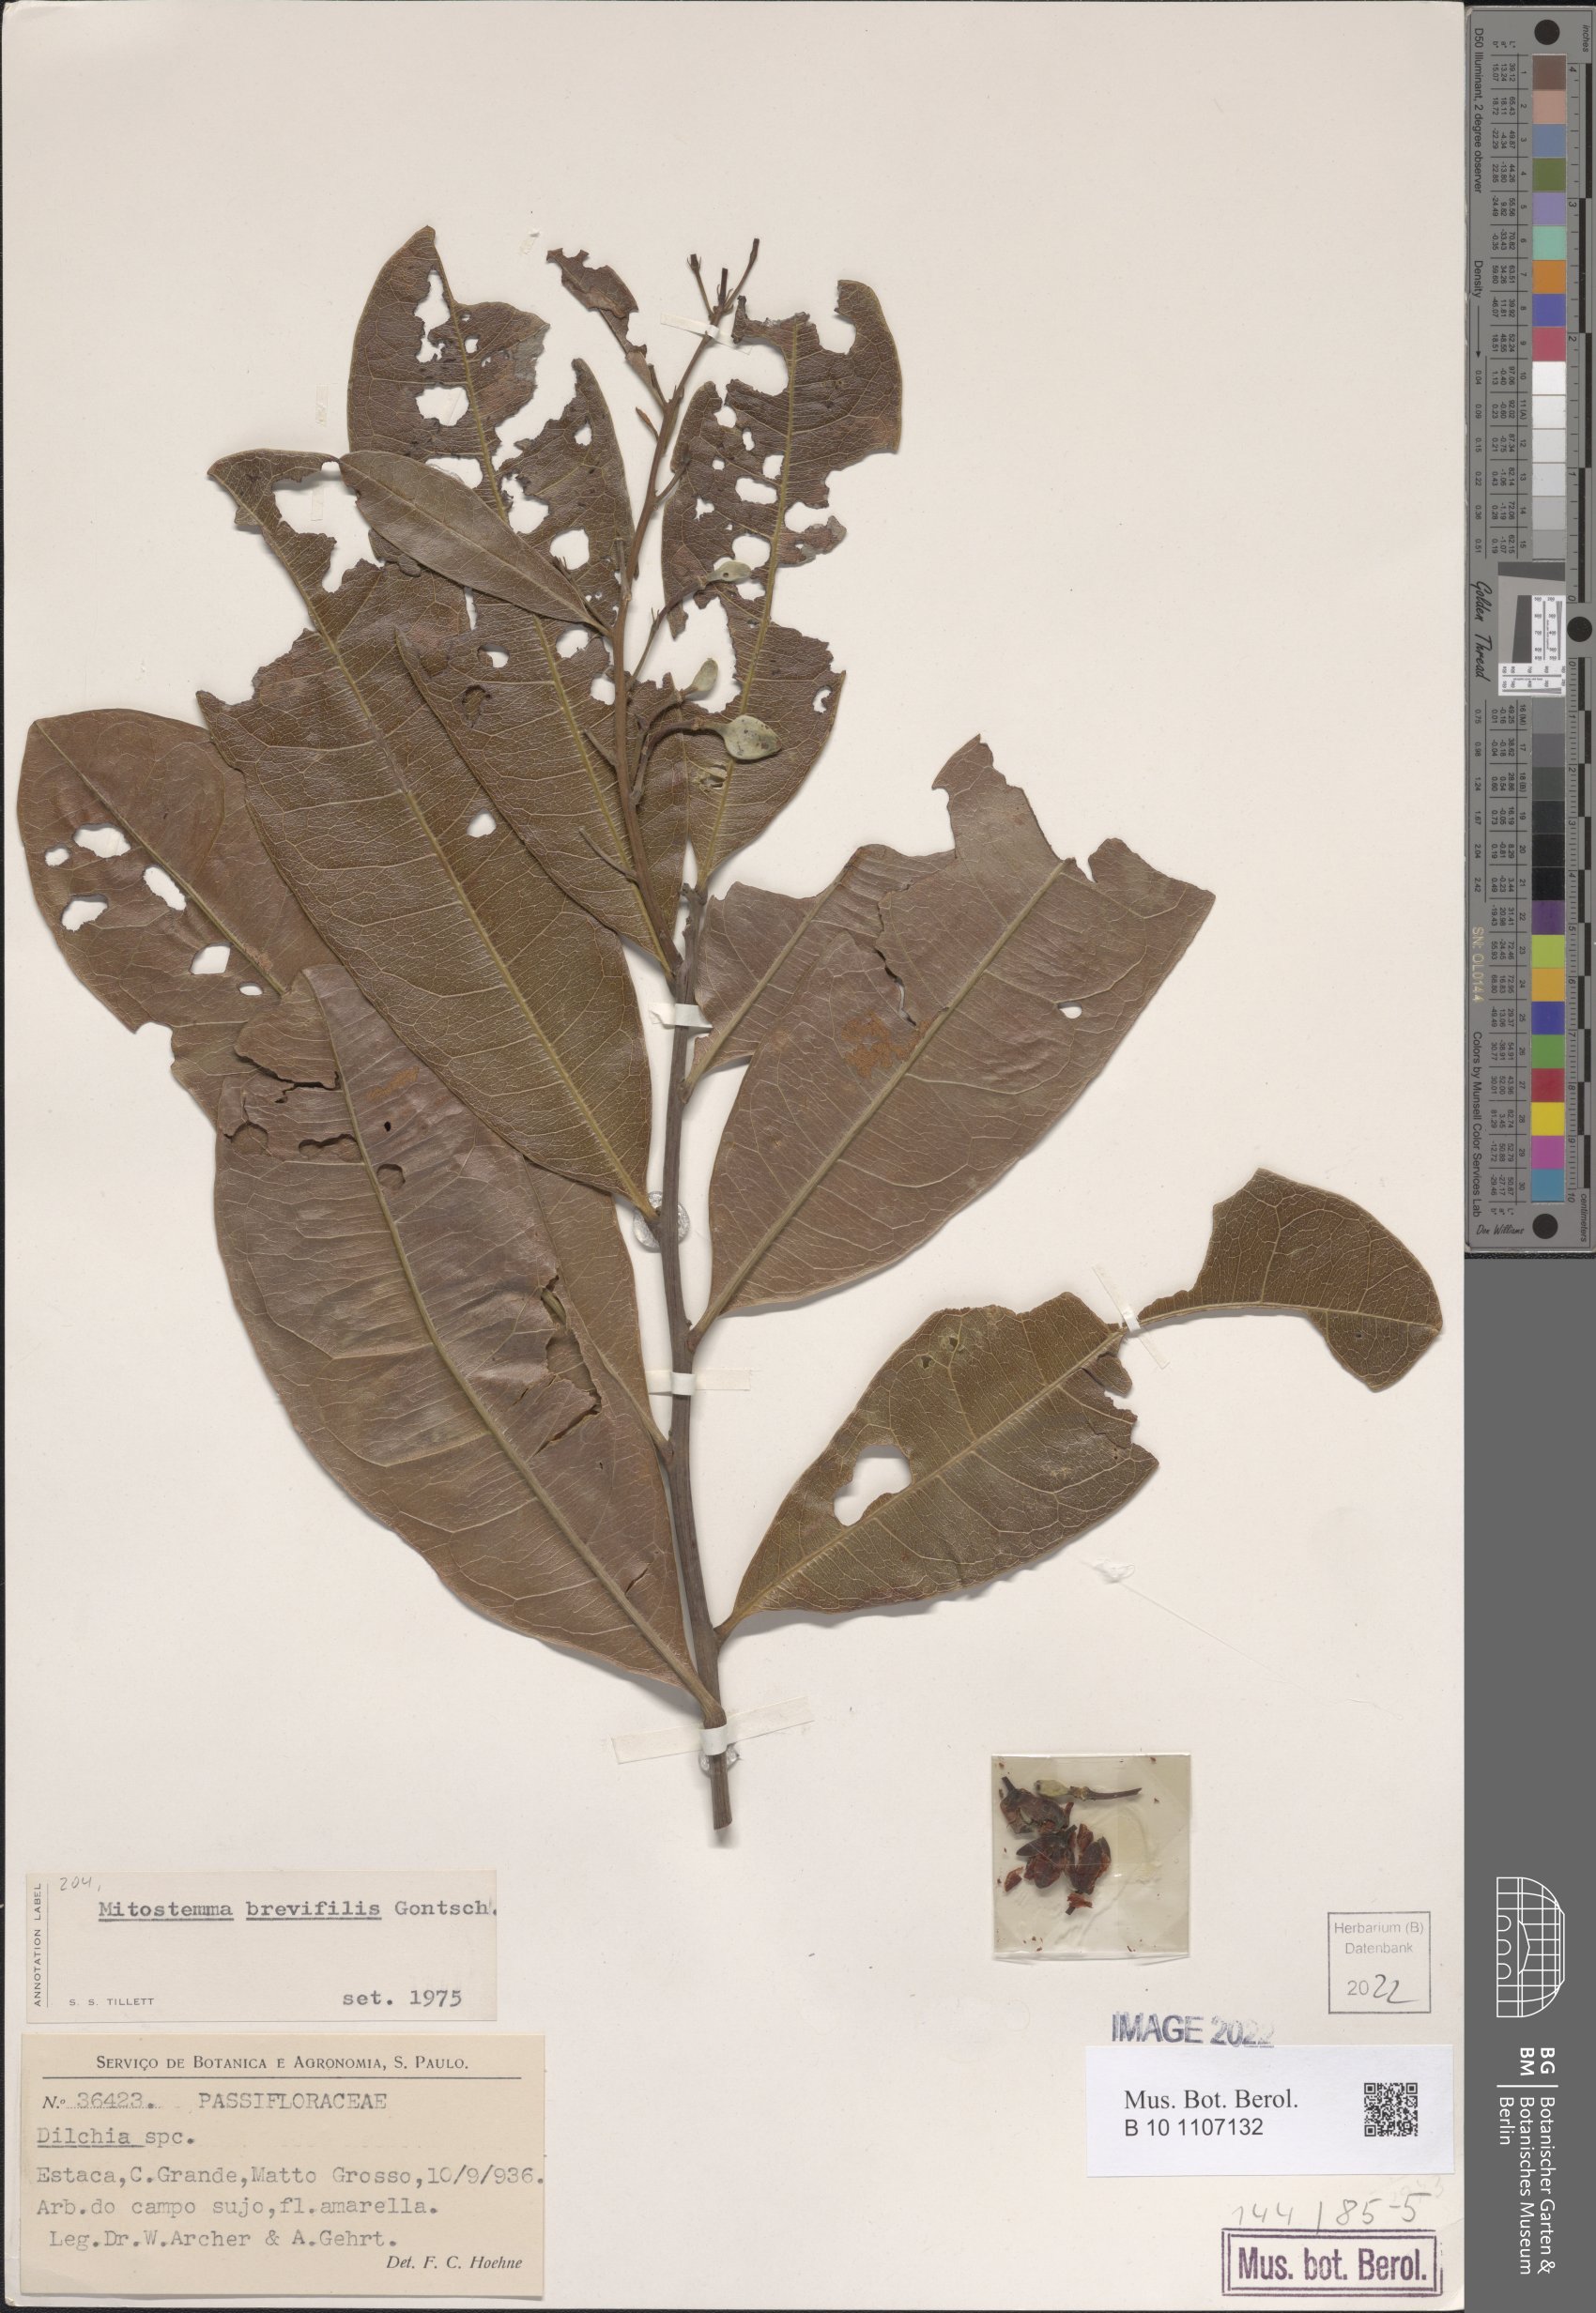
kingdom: Plantae
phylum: Tracheophyta
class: Magnoliopsida
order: Malpighiales
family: Passifloraceae
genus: Mitostemma
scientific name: Mitostemma brevifilis
